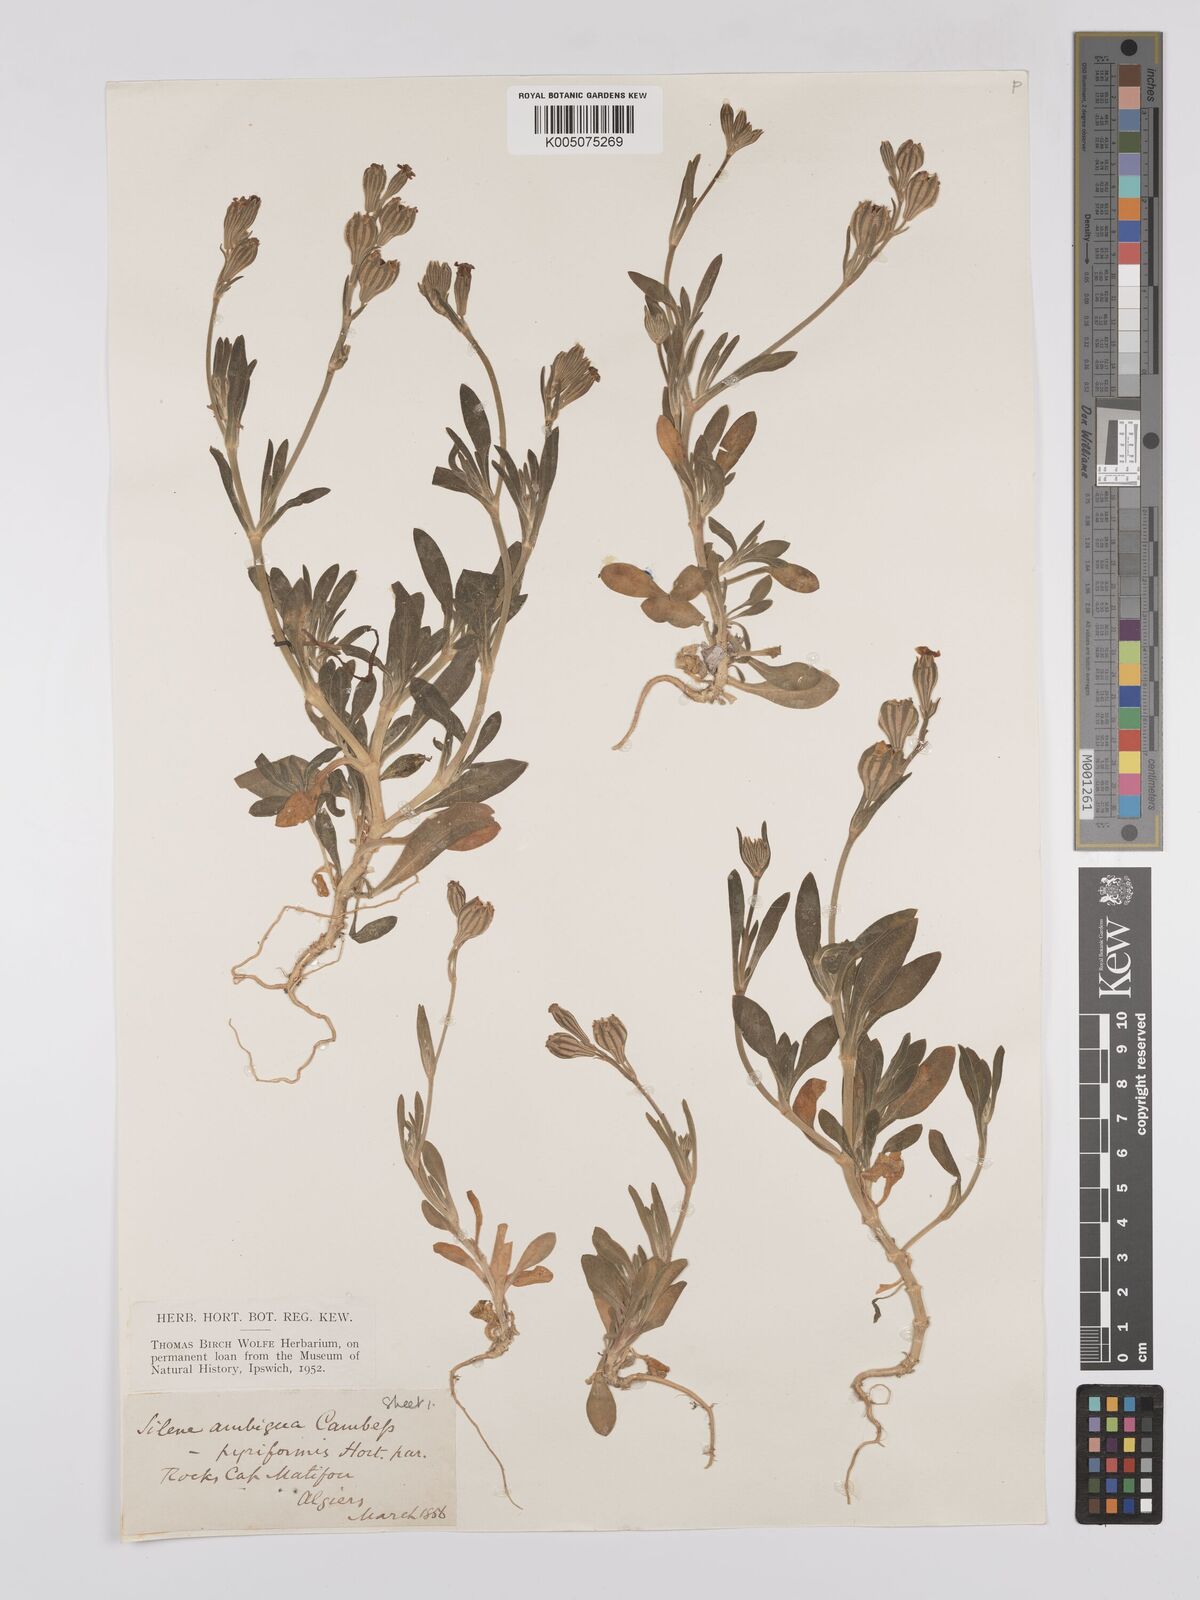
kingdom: Plantae
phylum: Tracheophyta
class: Magnoliopsida
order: Caryophyllales
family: Caryophyllaceae
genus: Silene
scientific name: Silene secundiflora
